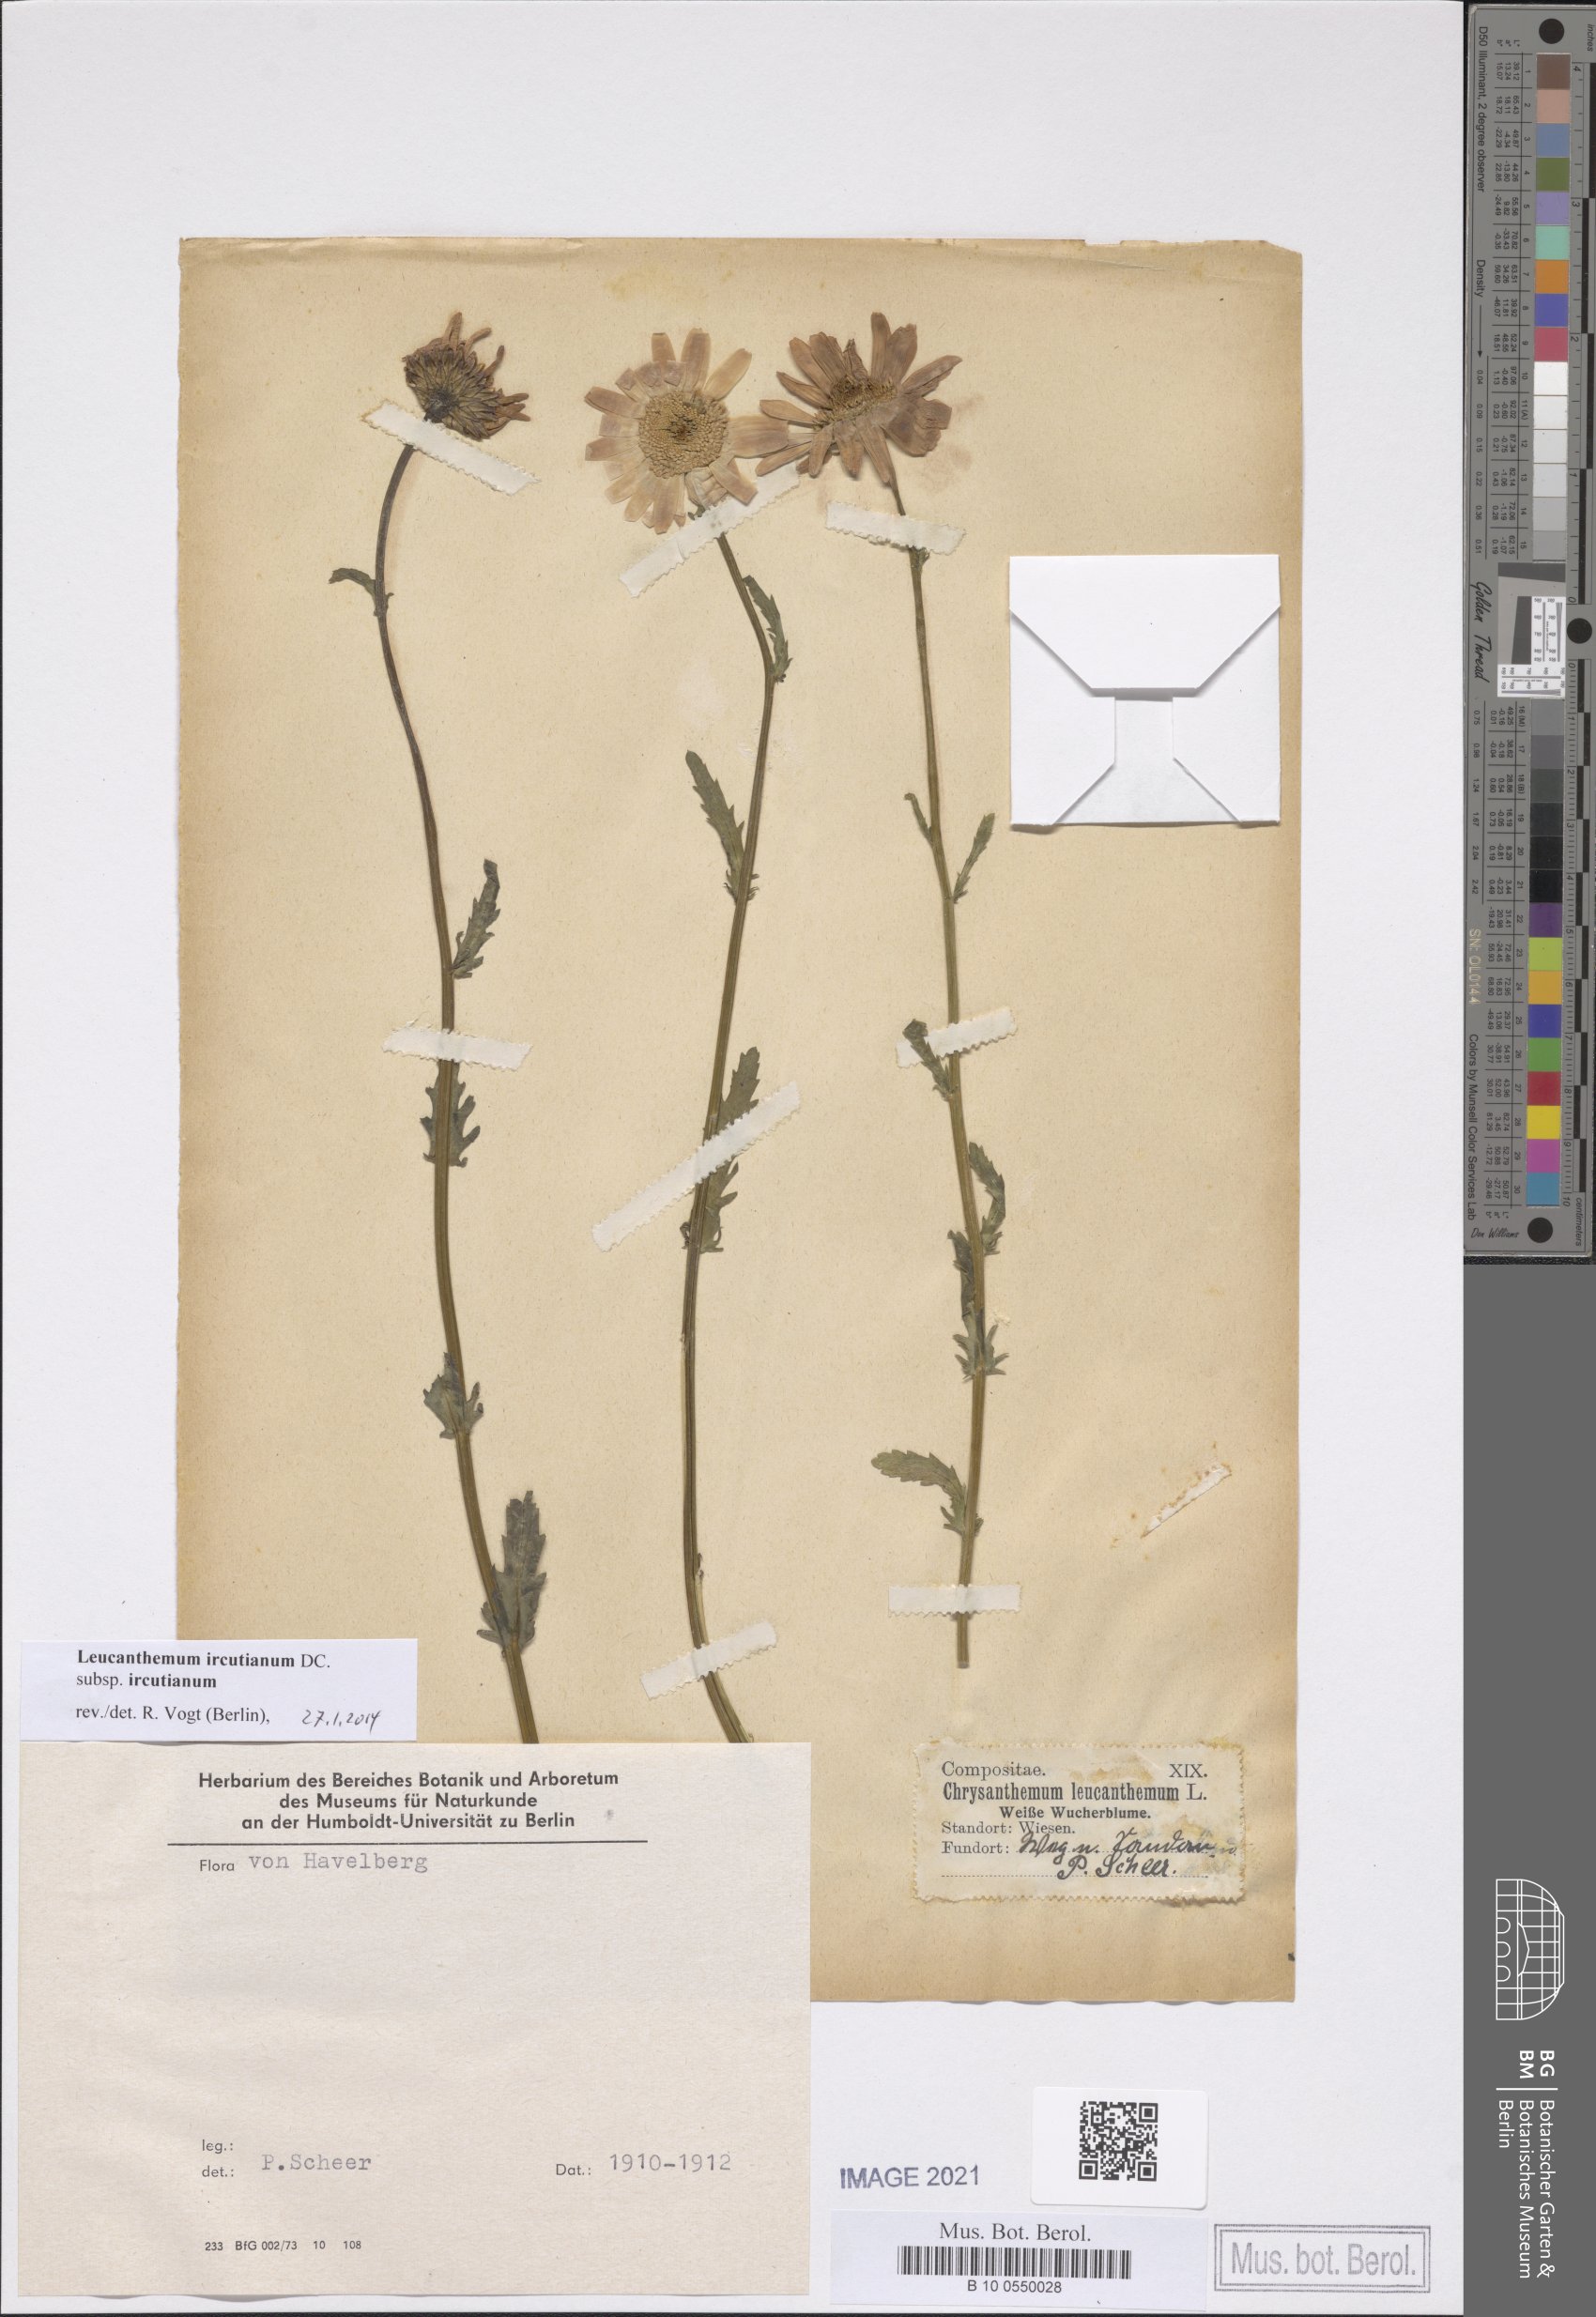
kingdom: Plantae
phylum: Tracheophyta
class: Magnoliopsida
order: Asterales
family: Asteraceae
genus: Leucanthemum
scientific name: Leucanthemum ircutianum
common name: Daisy
